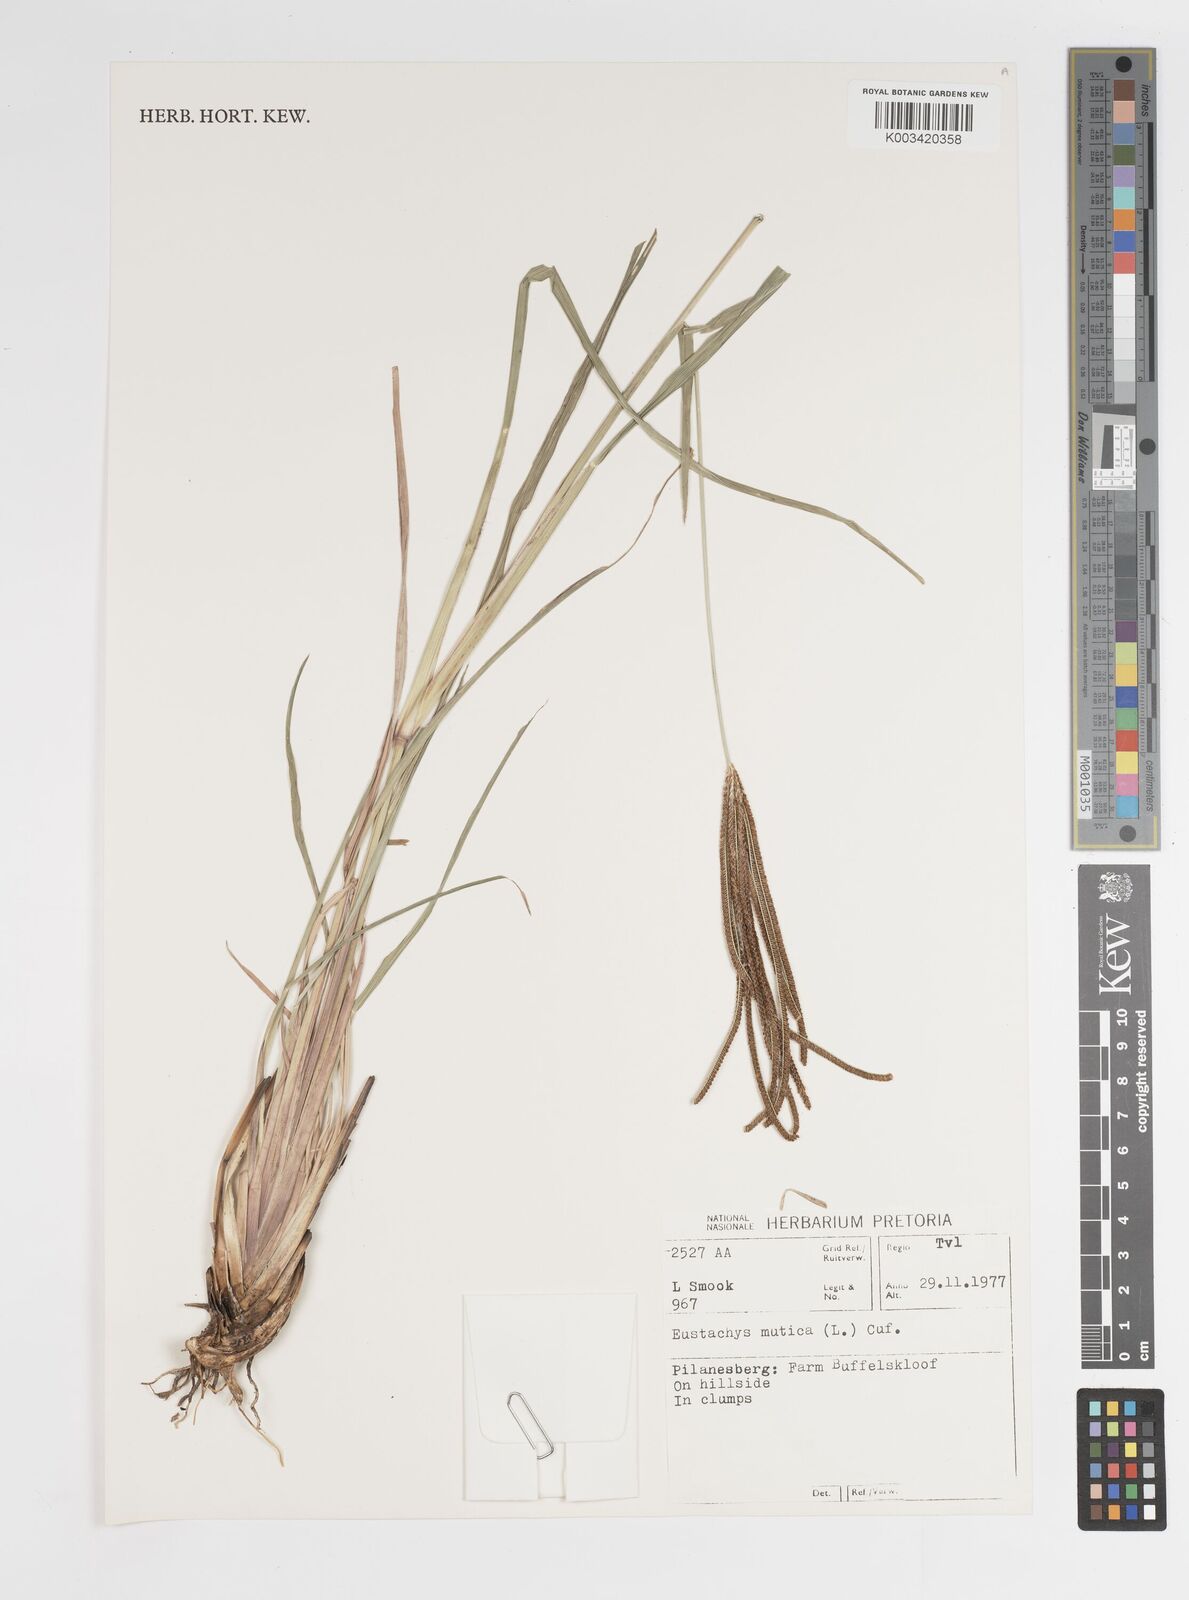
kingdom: Plantae
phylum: Tracheophyta
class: Liliopsida
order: Poales
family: Poaceae
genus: Eustachys
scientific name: Eustachys paspaloides
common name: Caribbean fingergrass
